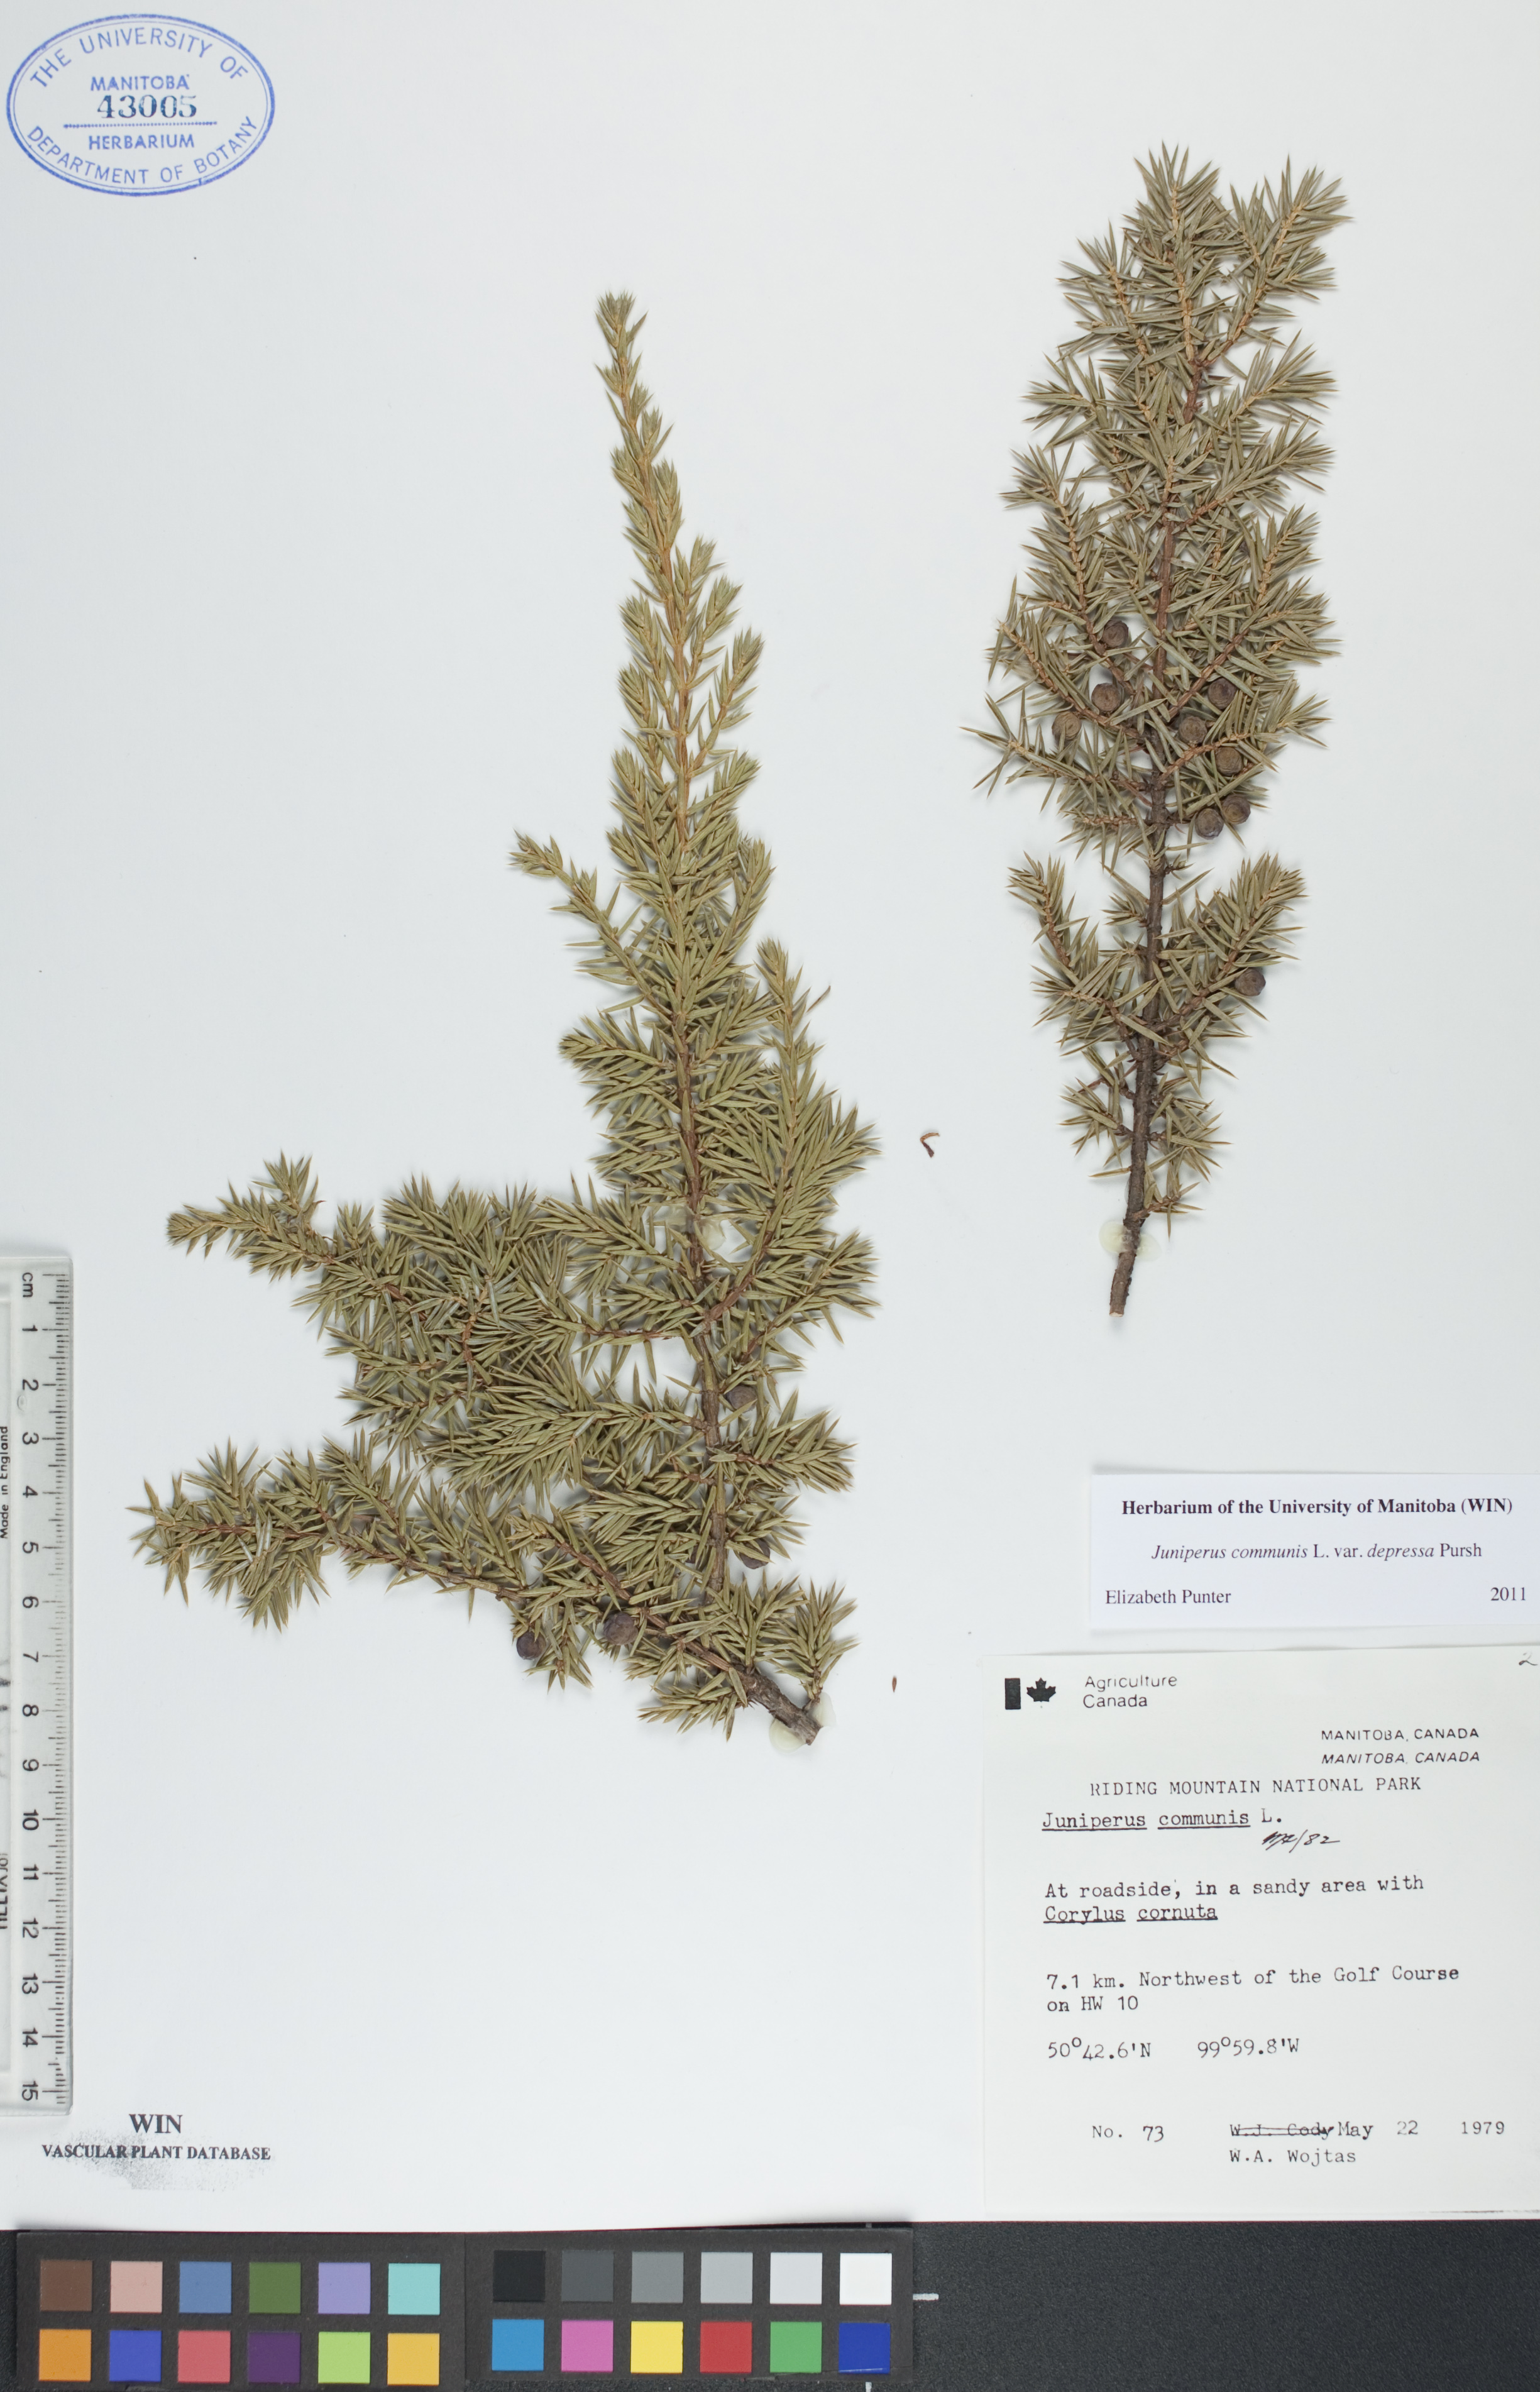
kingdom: Plantae
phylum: Tracheophyta
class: Pinopsida
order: Pinales
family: Cupressaceae
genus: Juniperus
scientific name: Juniperus communis
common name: Common juniper
